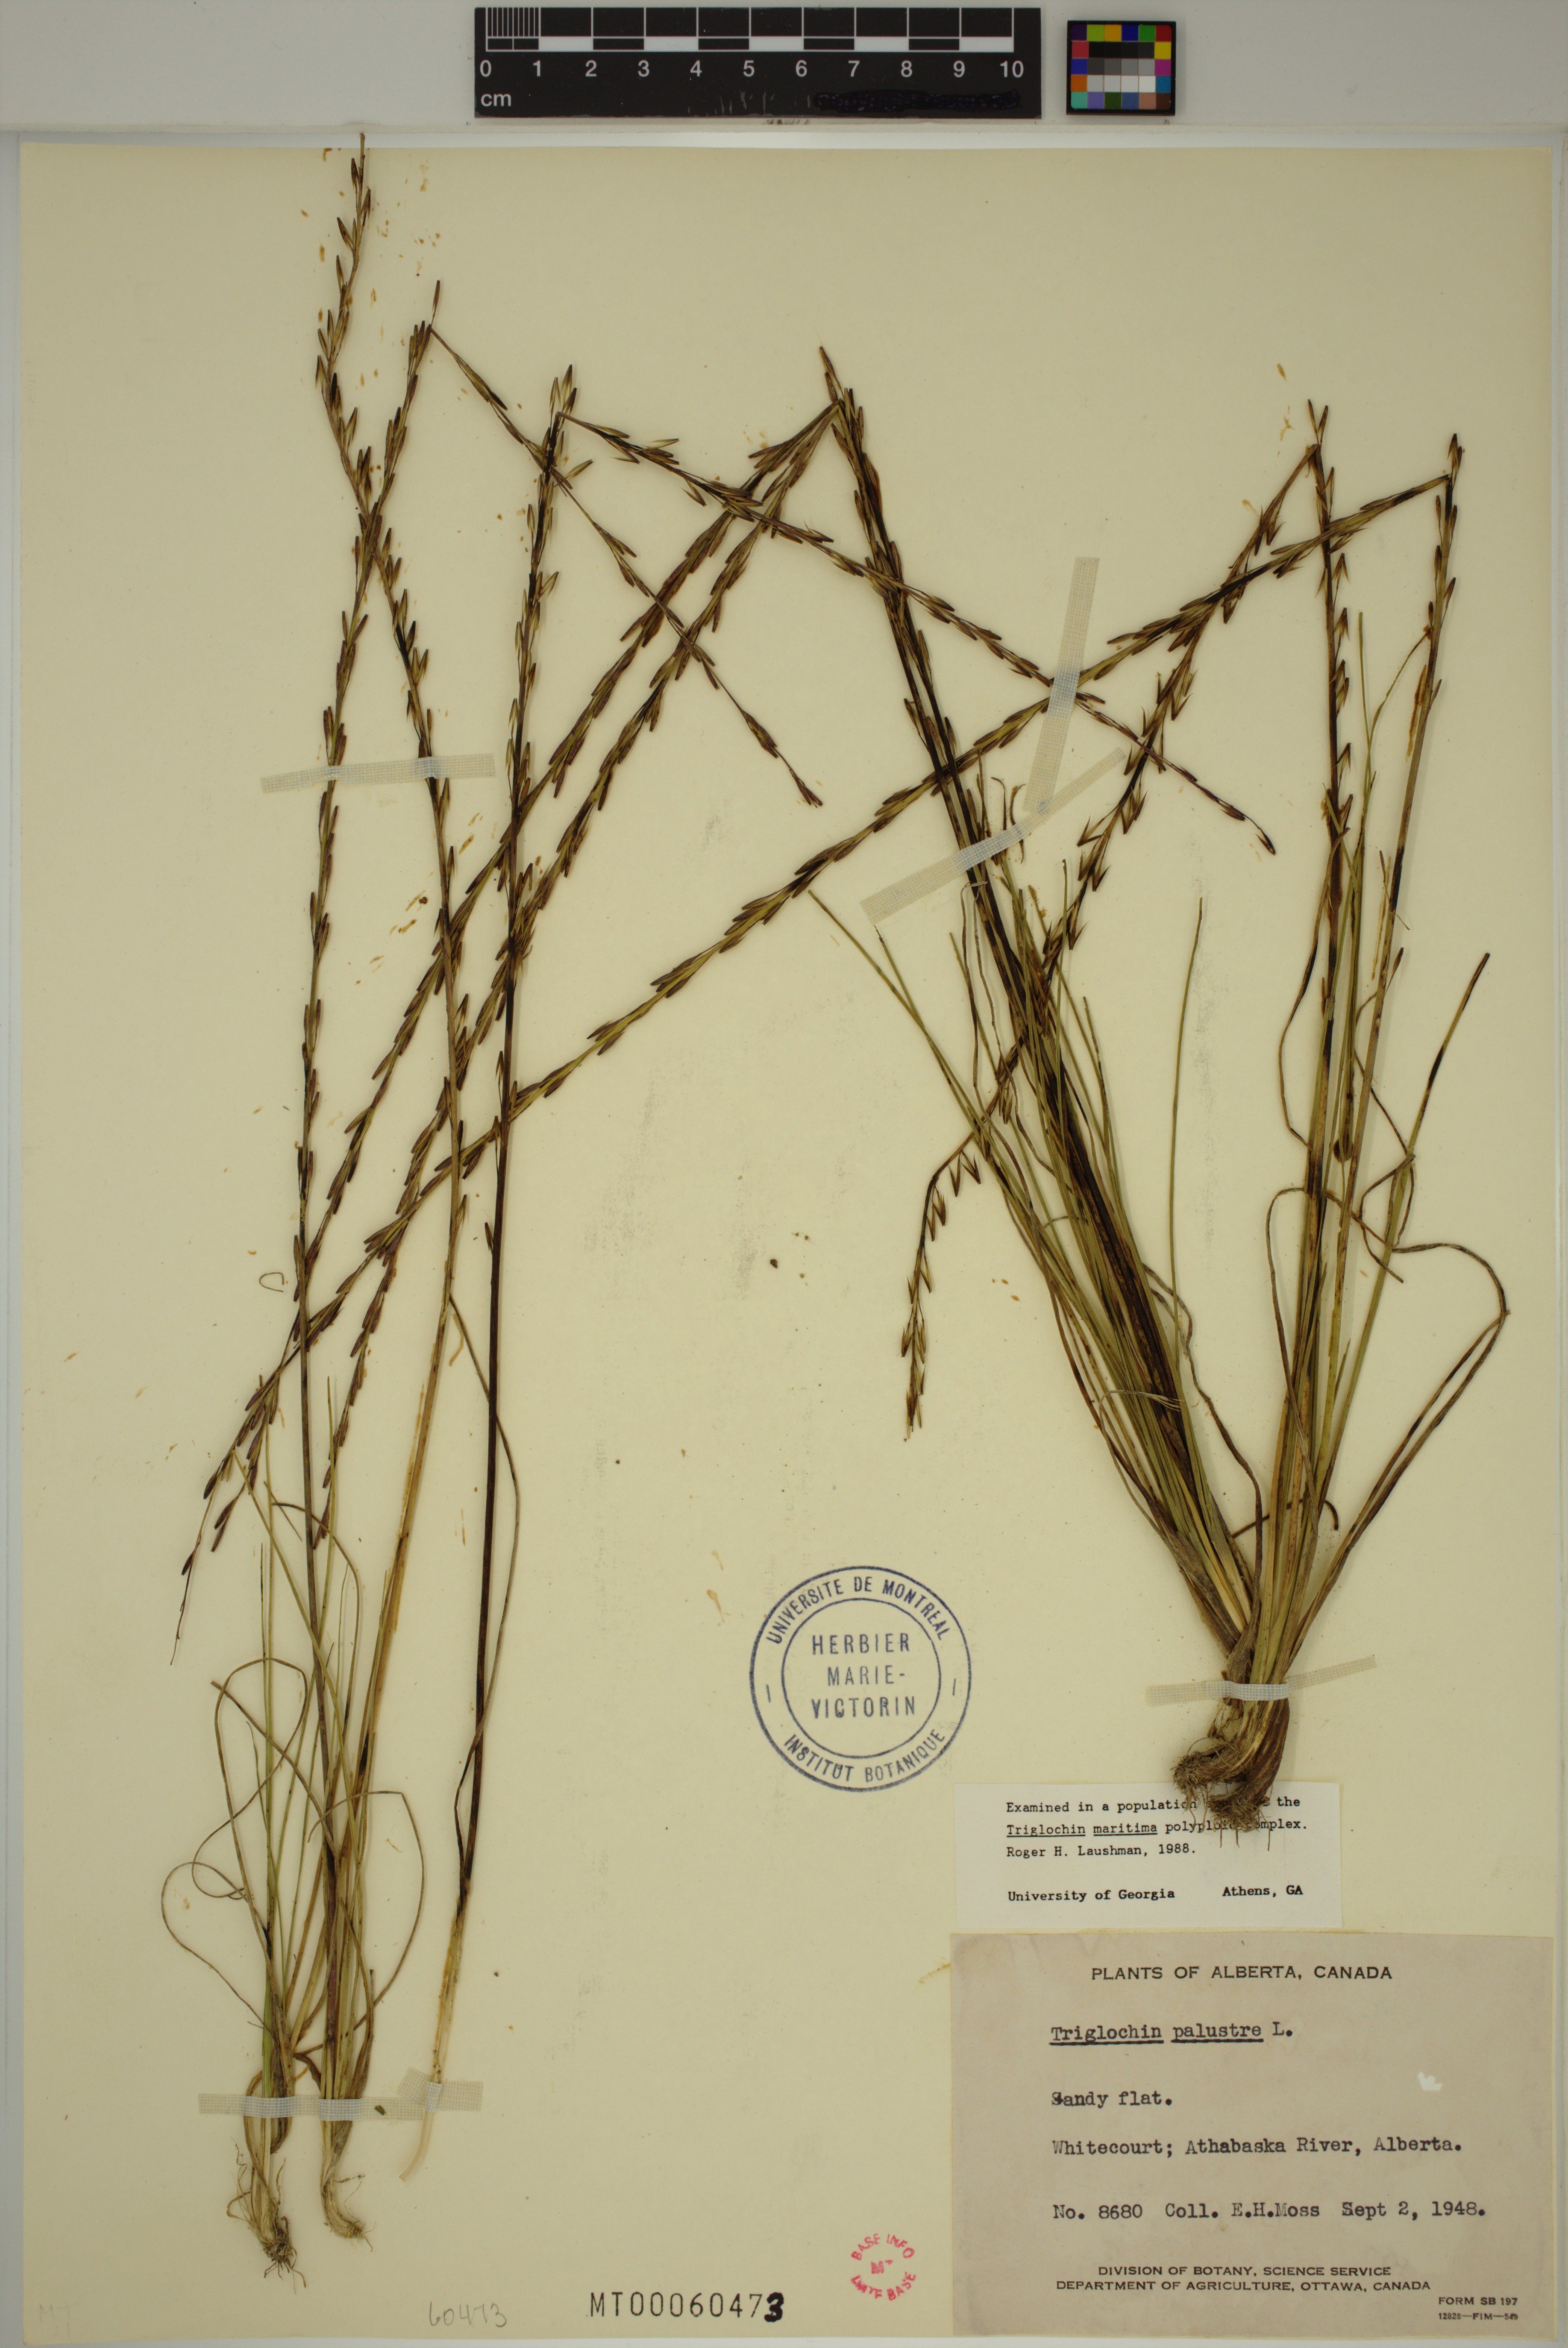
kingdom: Plantae
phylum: Tracheophyta
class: Liliopsida
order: Alismatales
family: Juncaginaceae
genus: Triglochin
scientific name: Triglochin palustris
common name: Marsh arrowgrass
